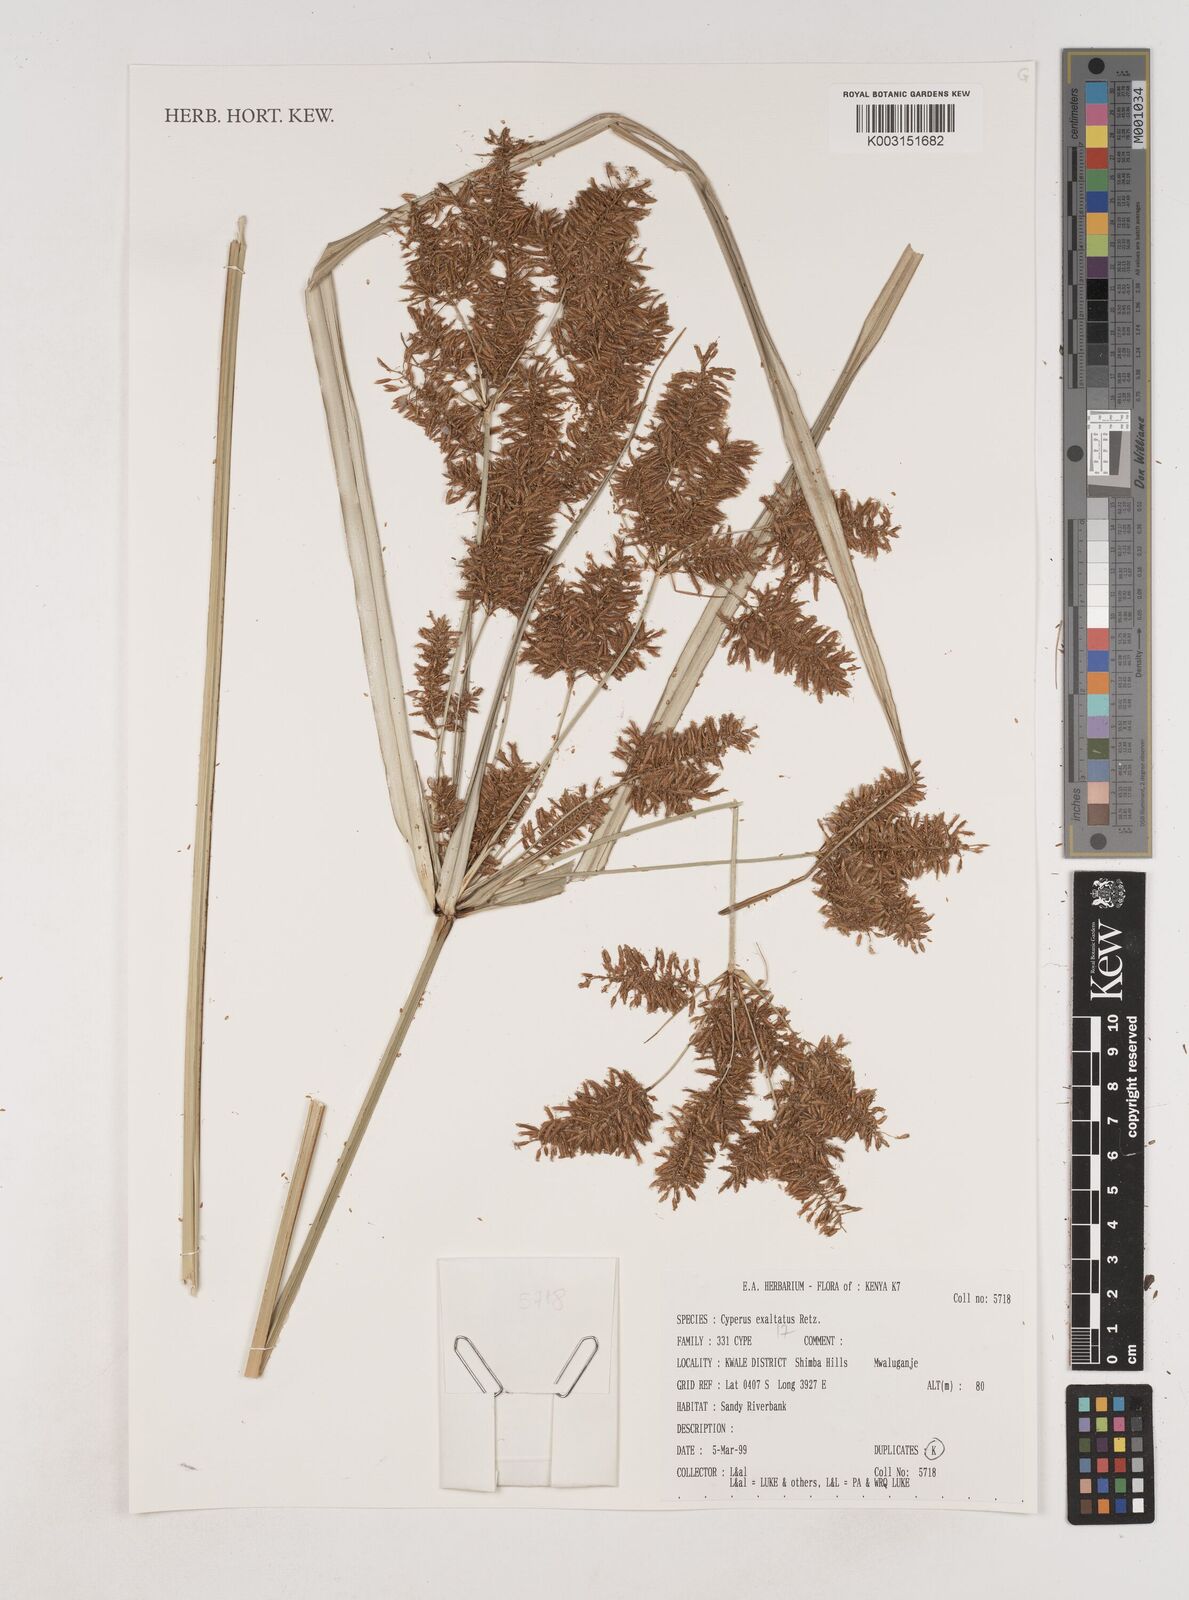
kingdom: Plantae
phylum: Tracheophyta
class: Liliopsida
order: Poales
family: Cyperaceae
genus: Cyperus
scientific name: Cyperus exaltatus
